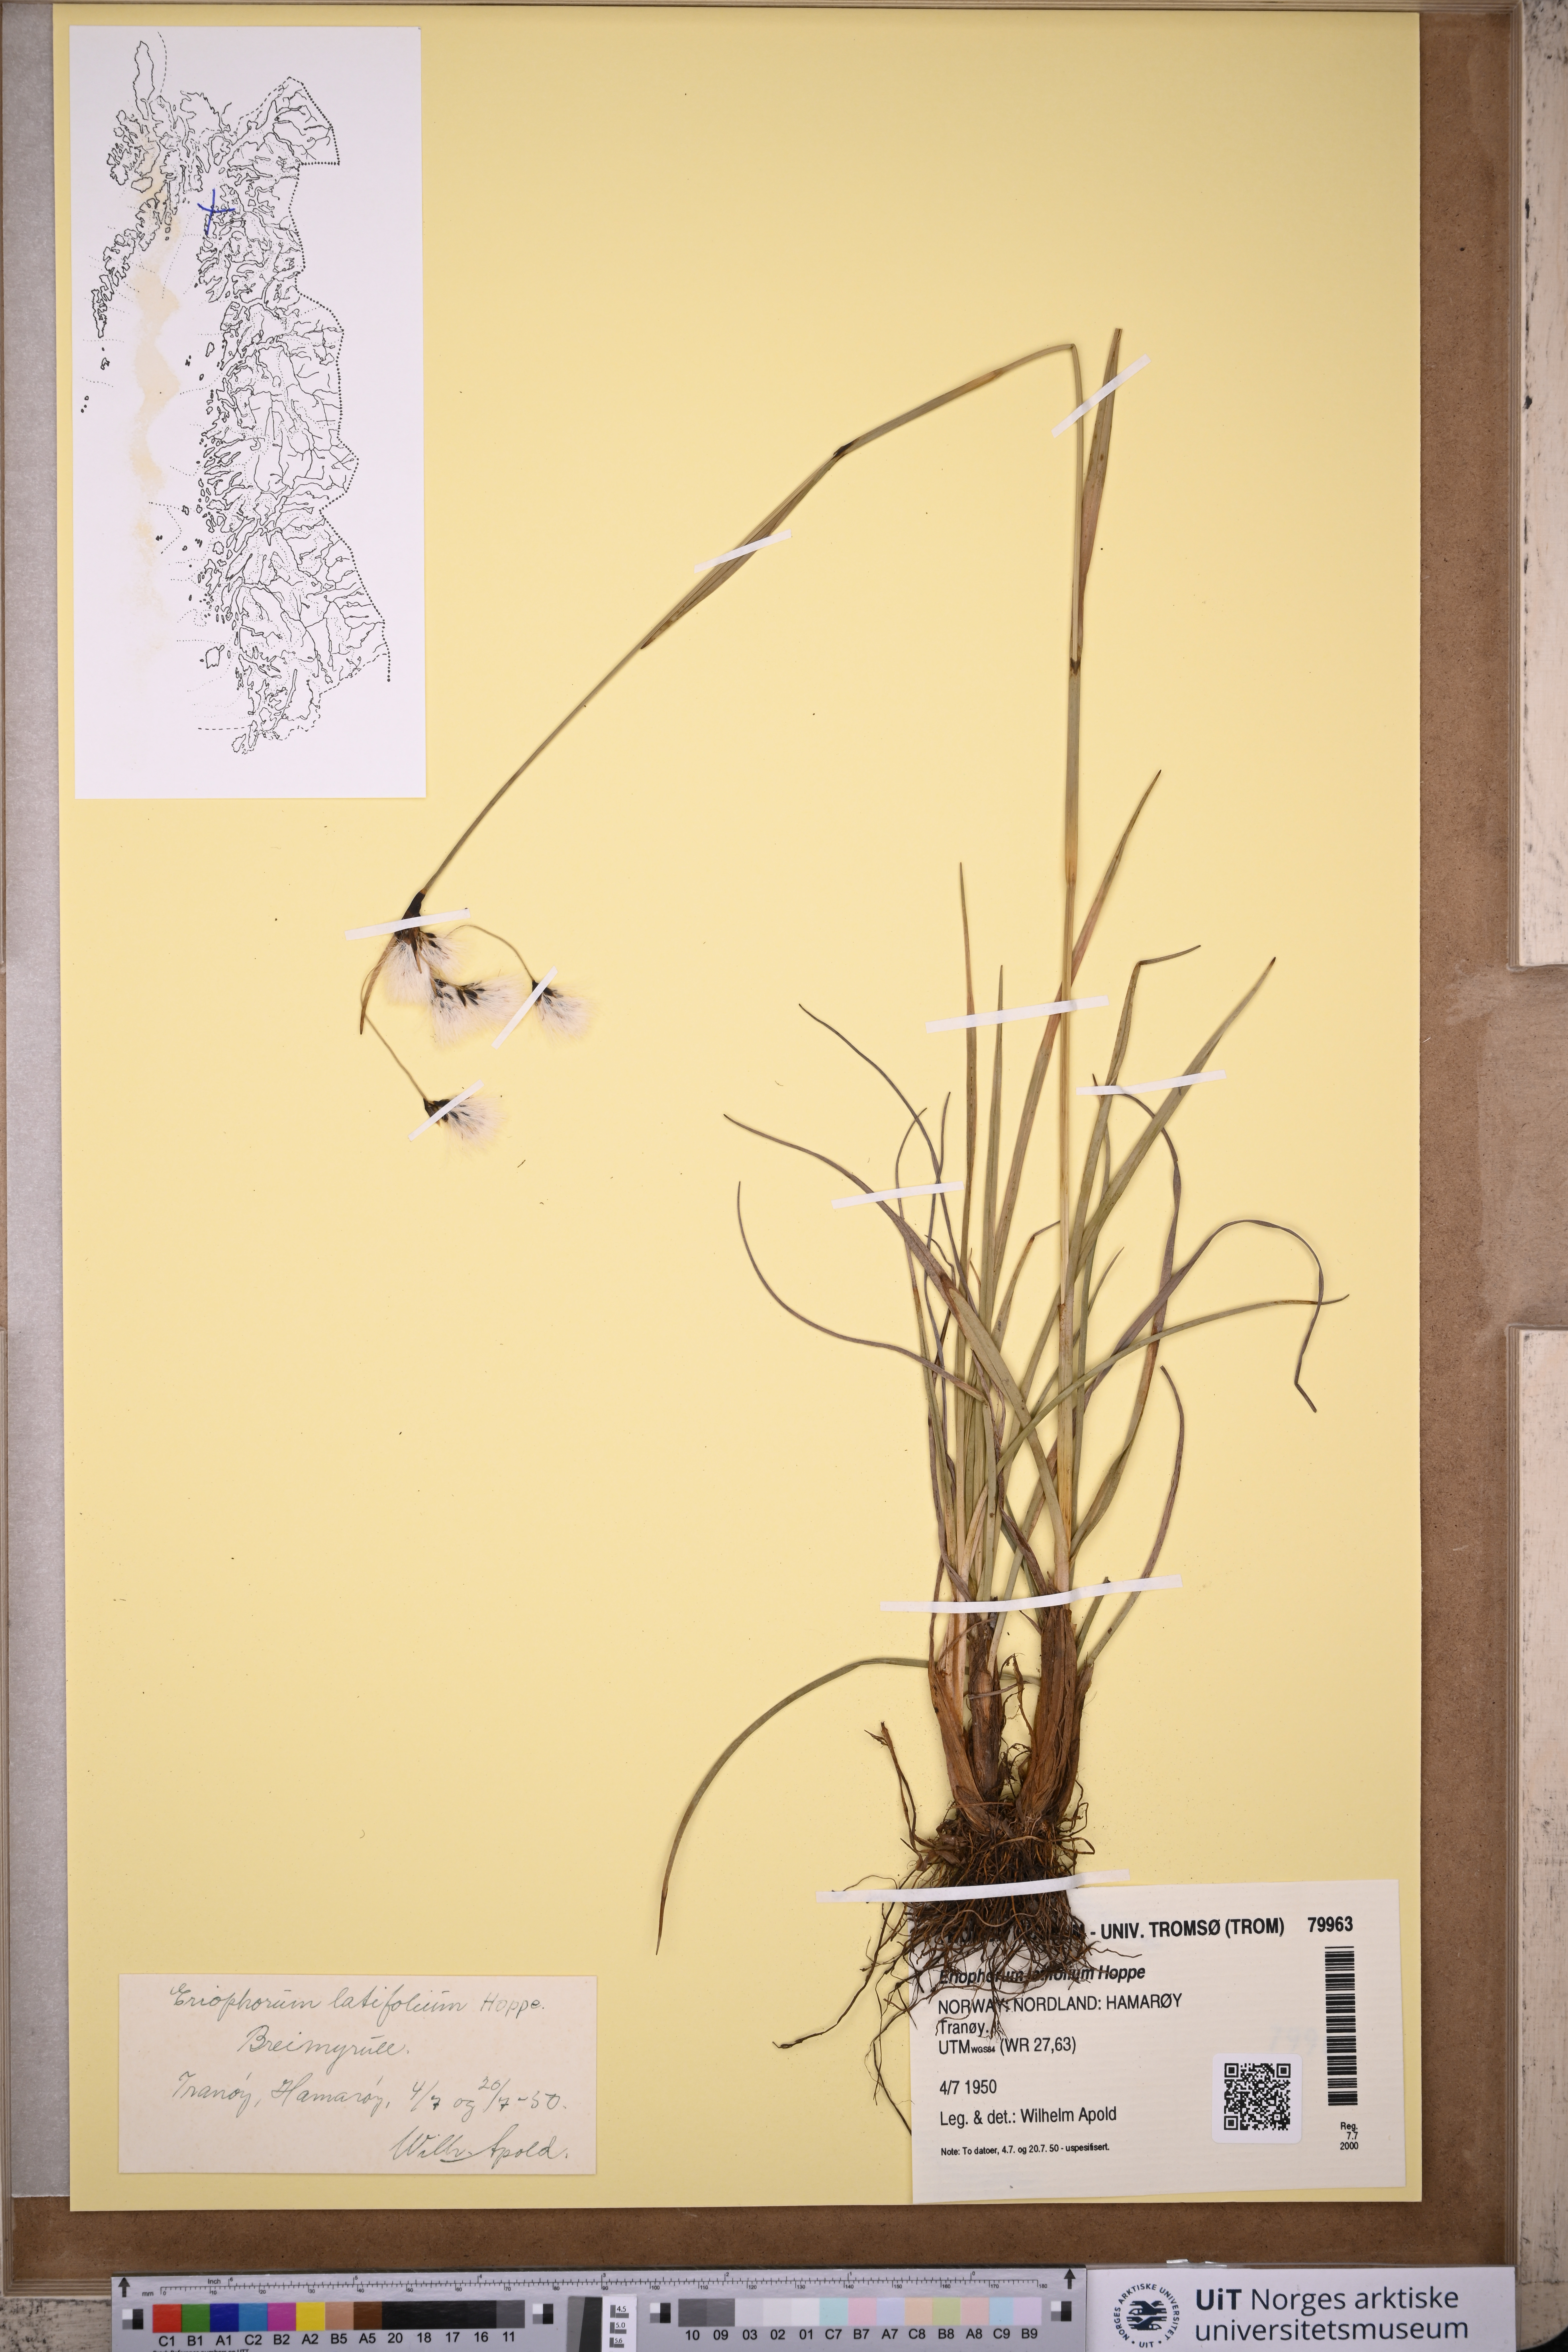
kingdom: Plantae
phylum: Tracheophyta
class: Liliopsida
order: Poales
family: Cyperaceae
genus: Eriophorum
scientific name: Eriophorum latifolium
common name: Broad-leaved cottongrass
